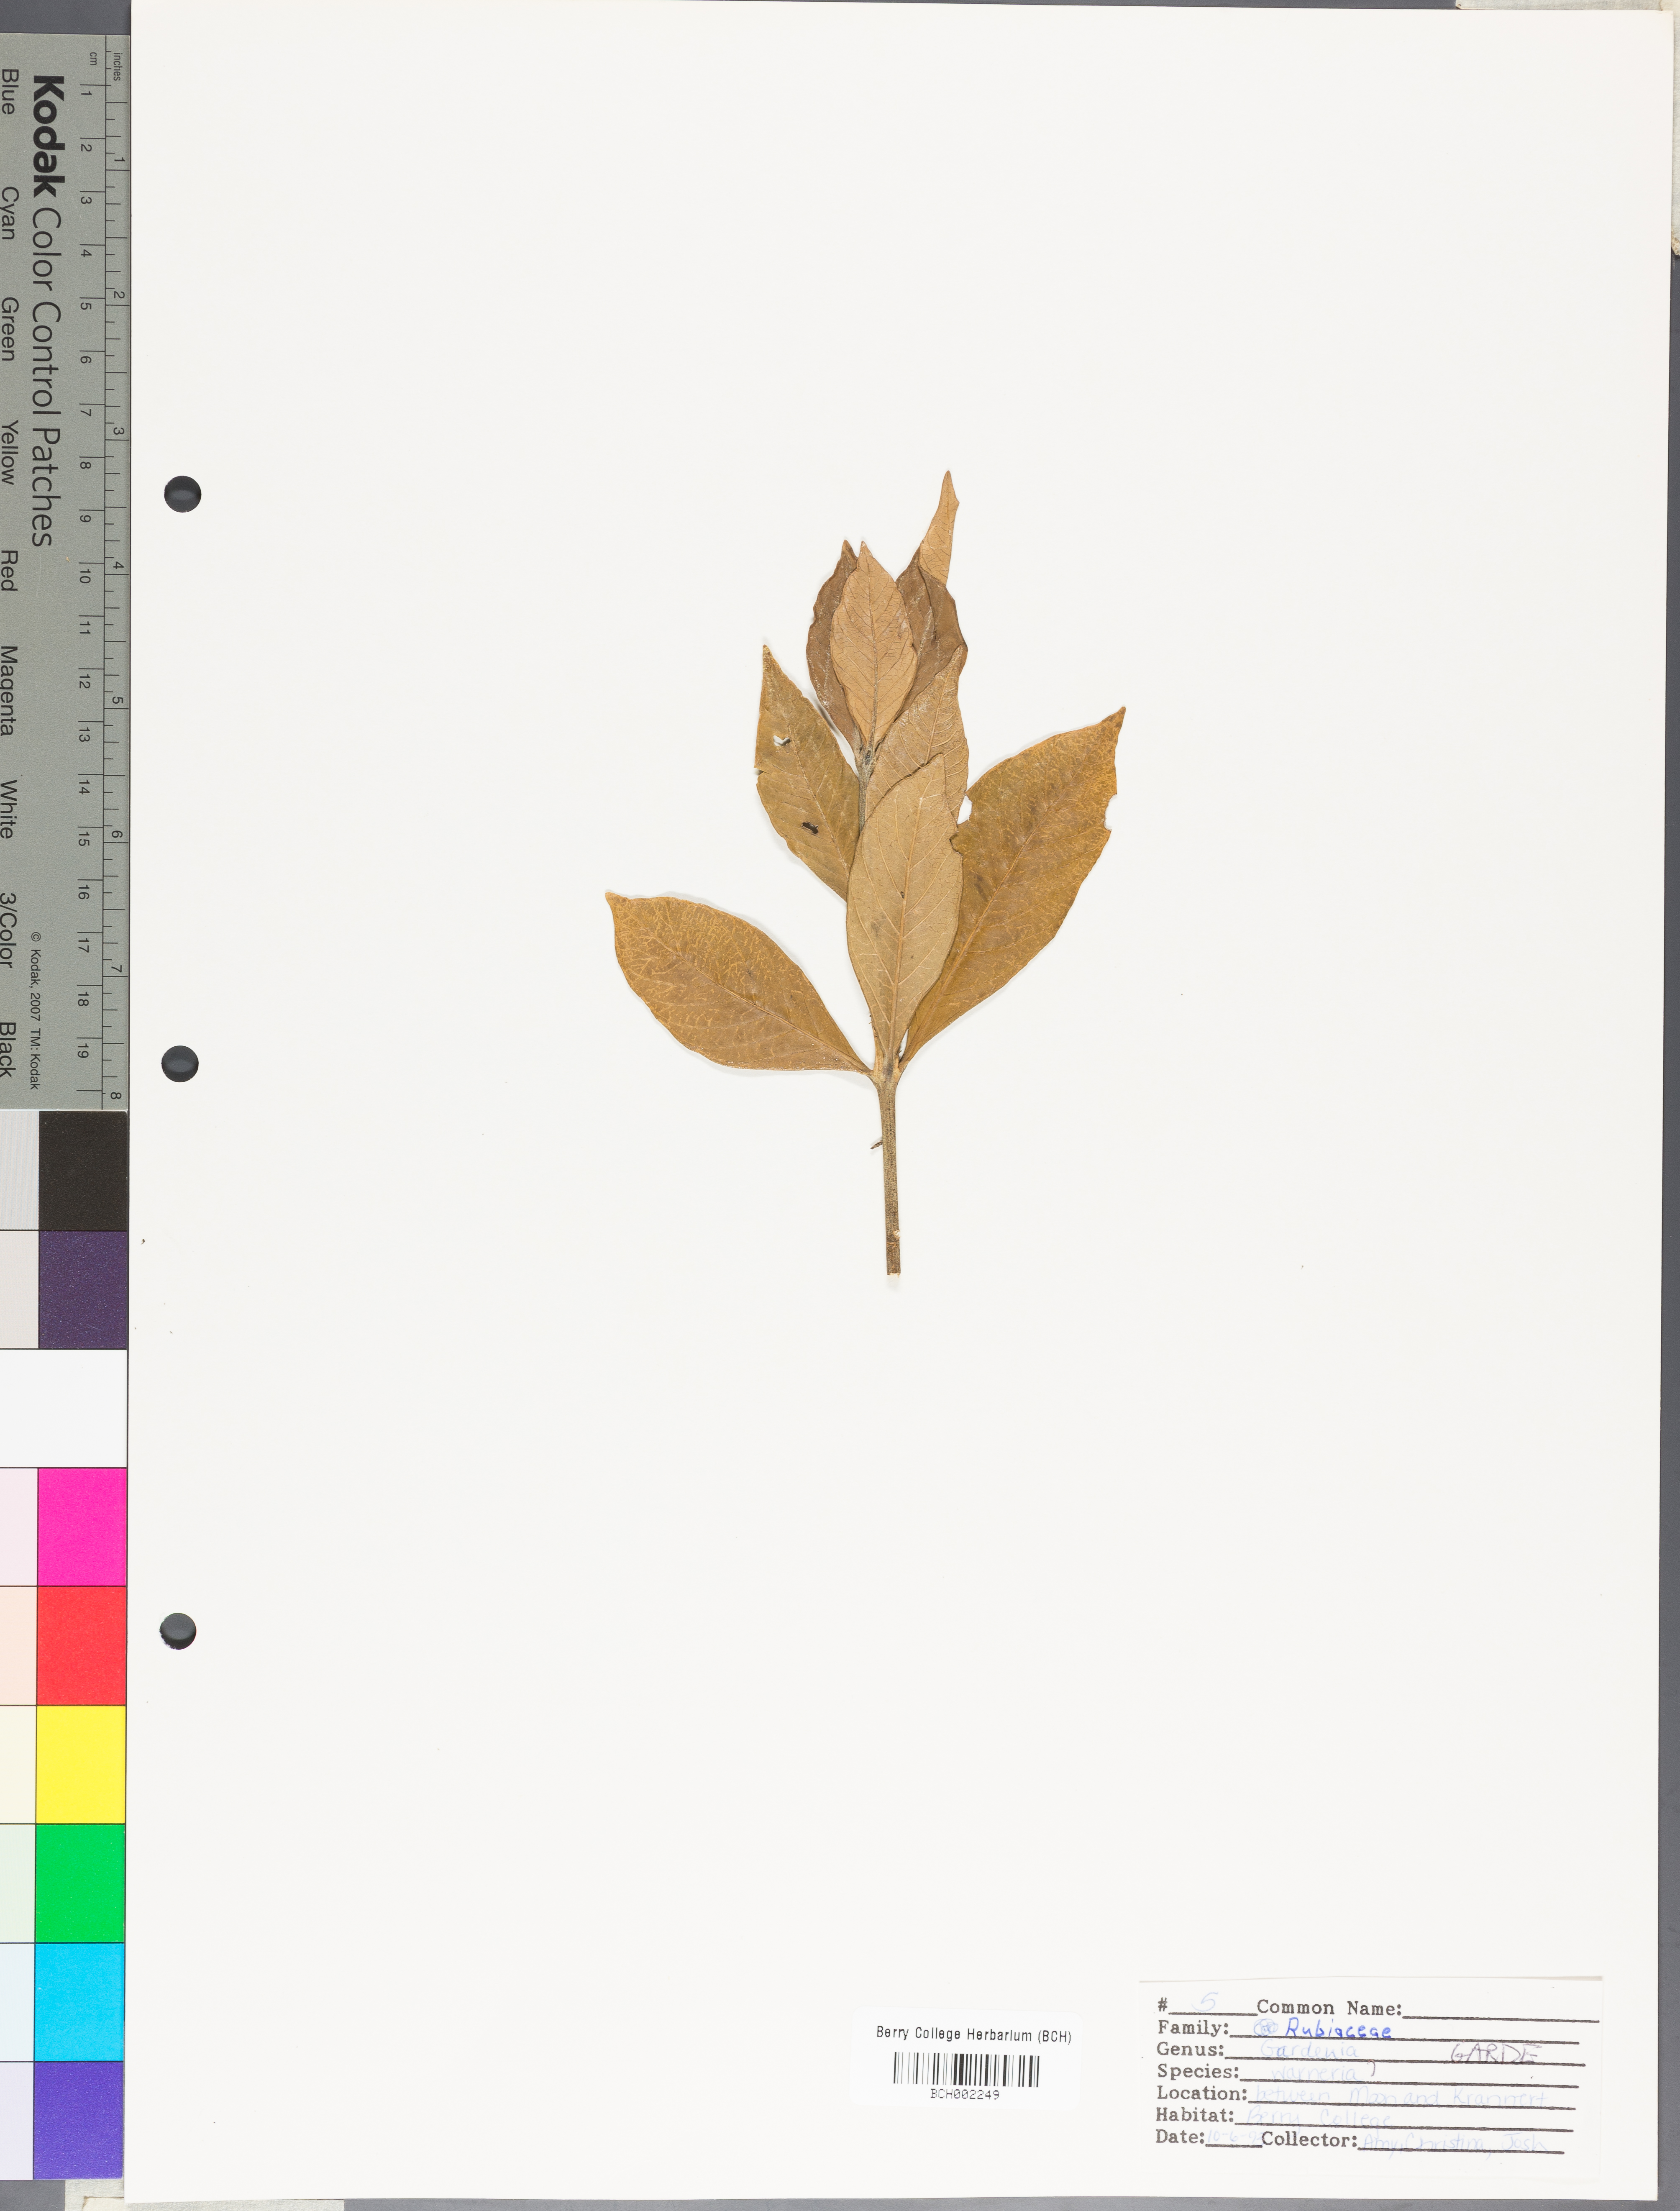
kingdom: Plantae
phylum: Tracheophyta
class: Magnoliopsida
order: Gentianales
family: Rubiaceae
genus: Gardenia
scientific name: Gardenia
